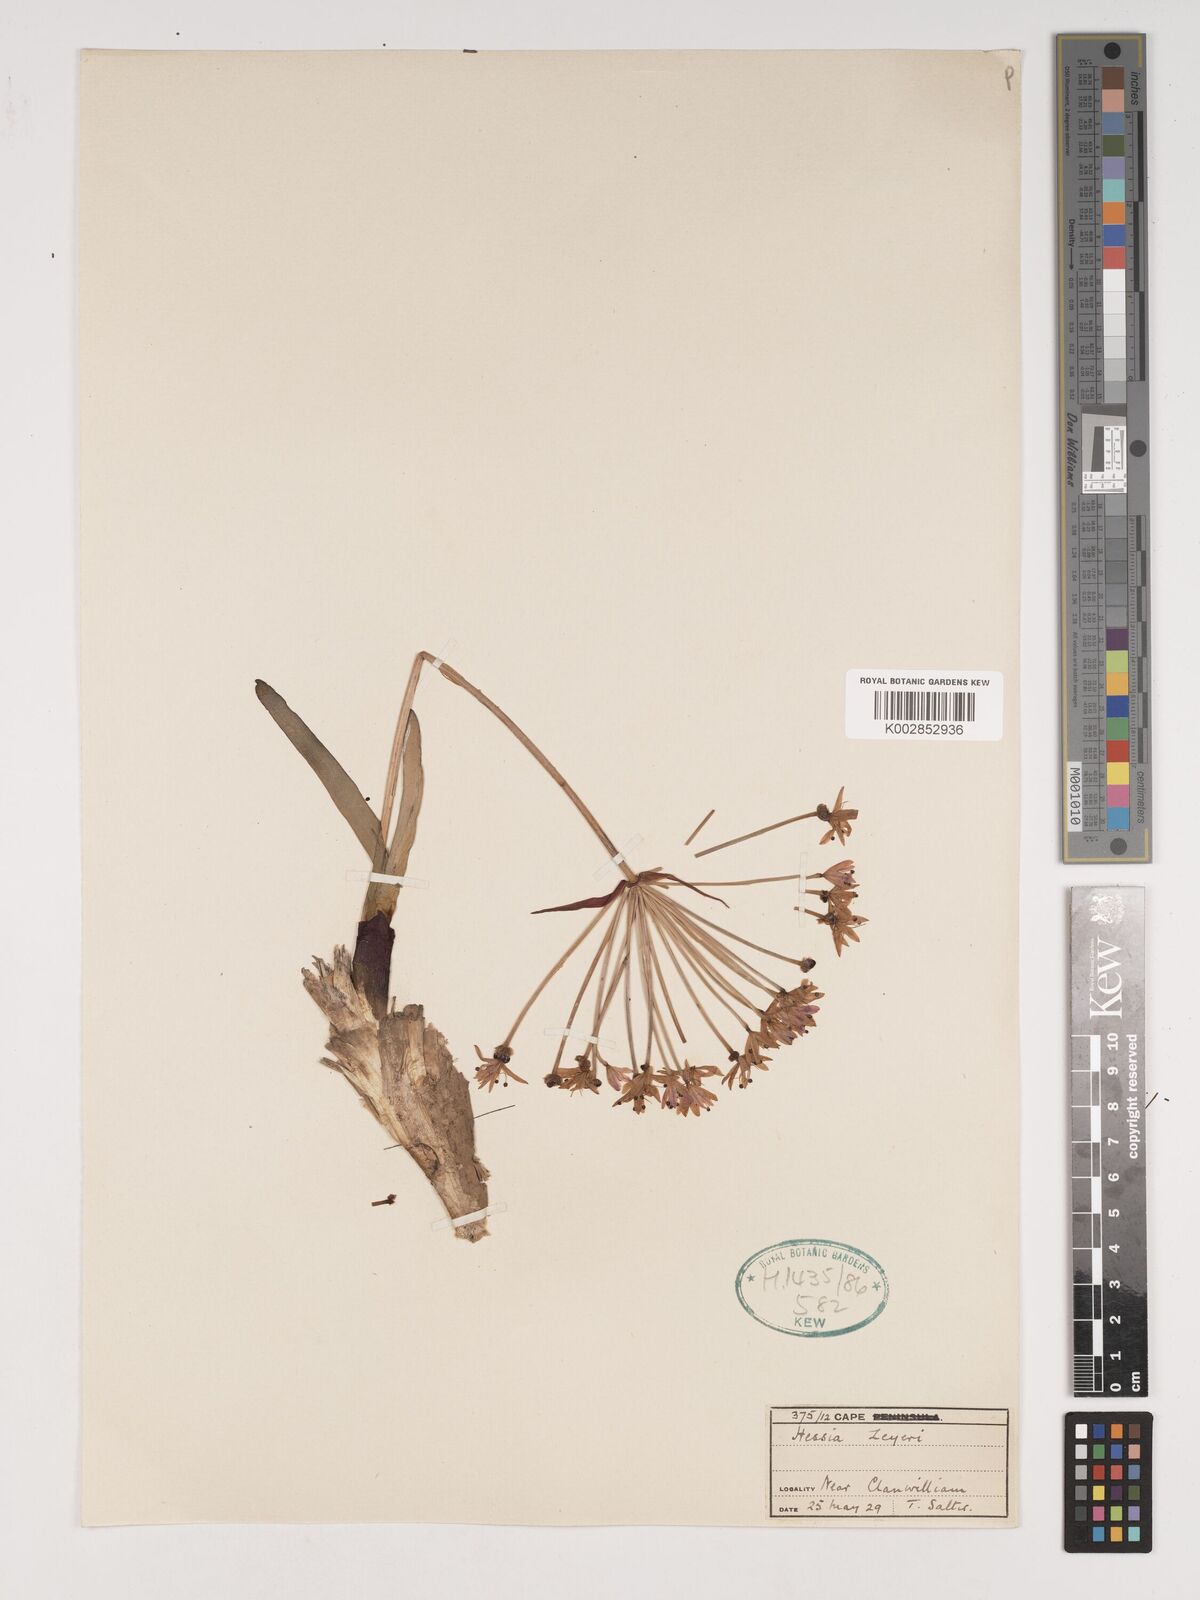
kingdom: Plantae
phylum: Tracheophyta
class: Liliopsida
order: Asparagales
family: Amaryllidaceae
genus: Hessea
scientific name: Hessea breviflora
